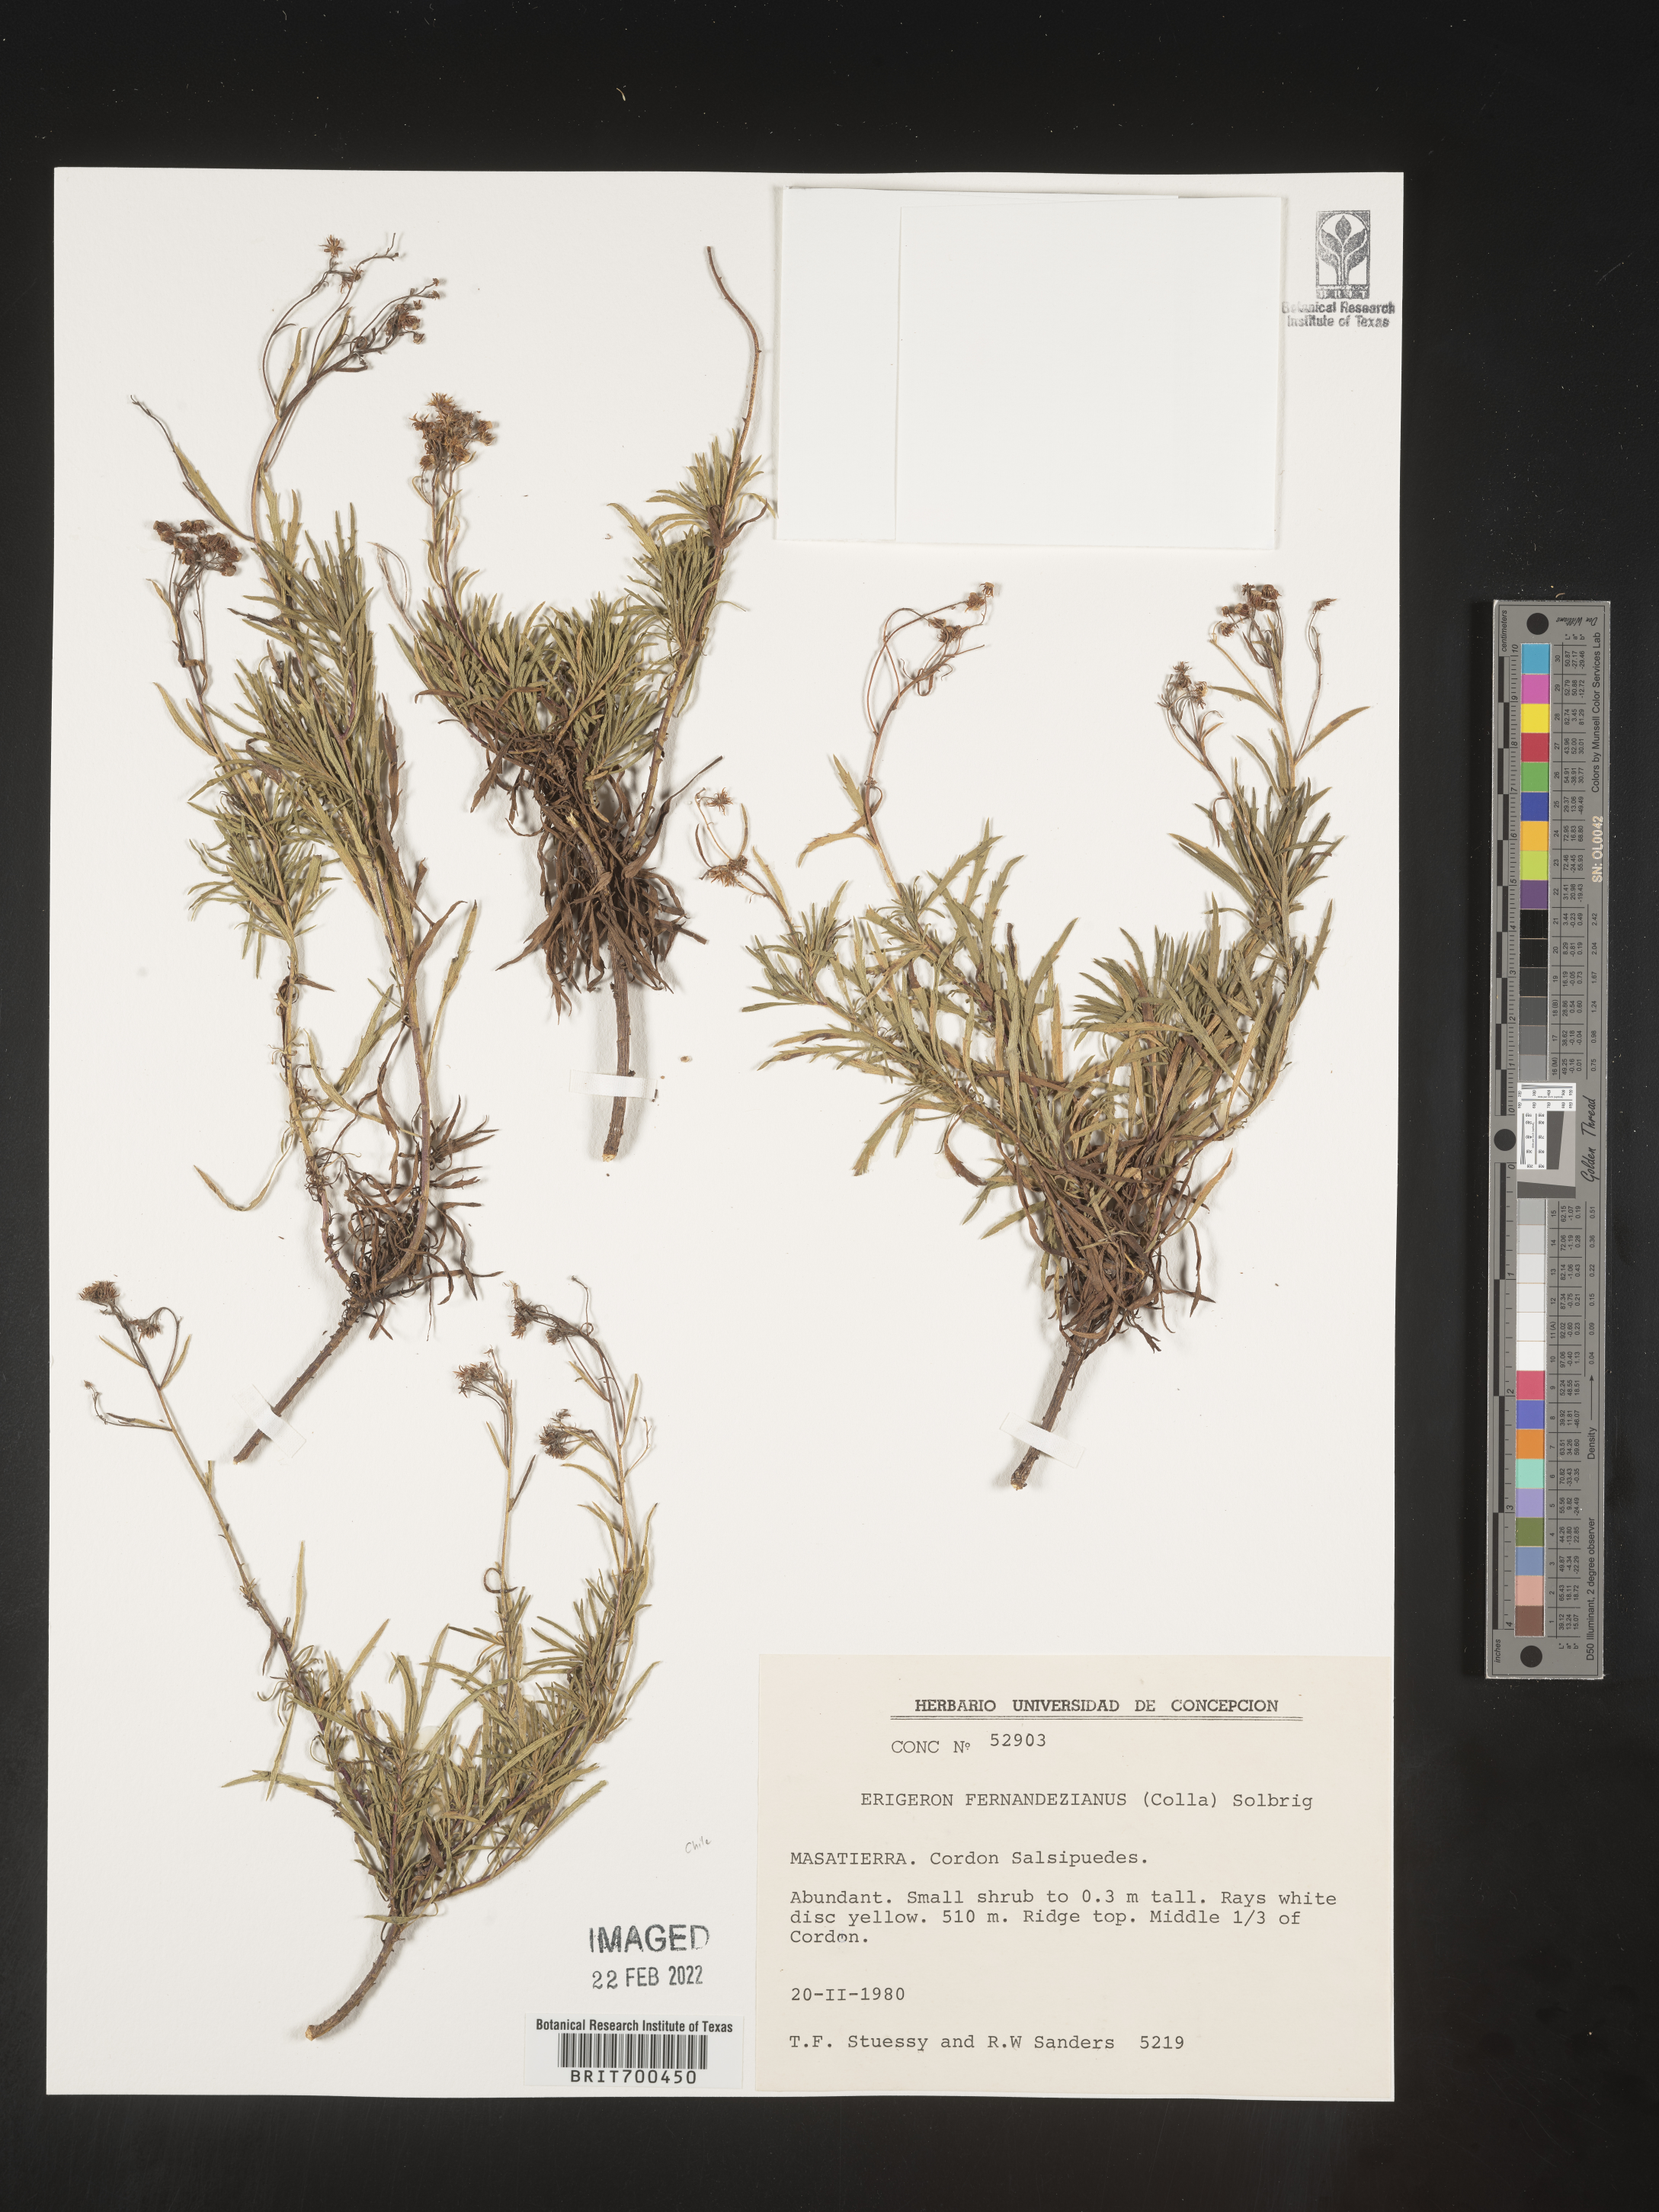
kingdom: Plantae
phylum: Tracheophyta
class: Magnoliopsida
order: Asterales
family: Asteraceae
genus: Erigeron
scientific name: Erigeron
